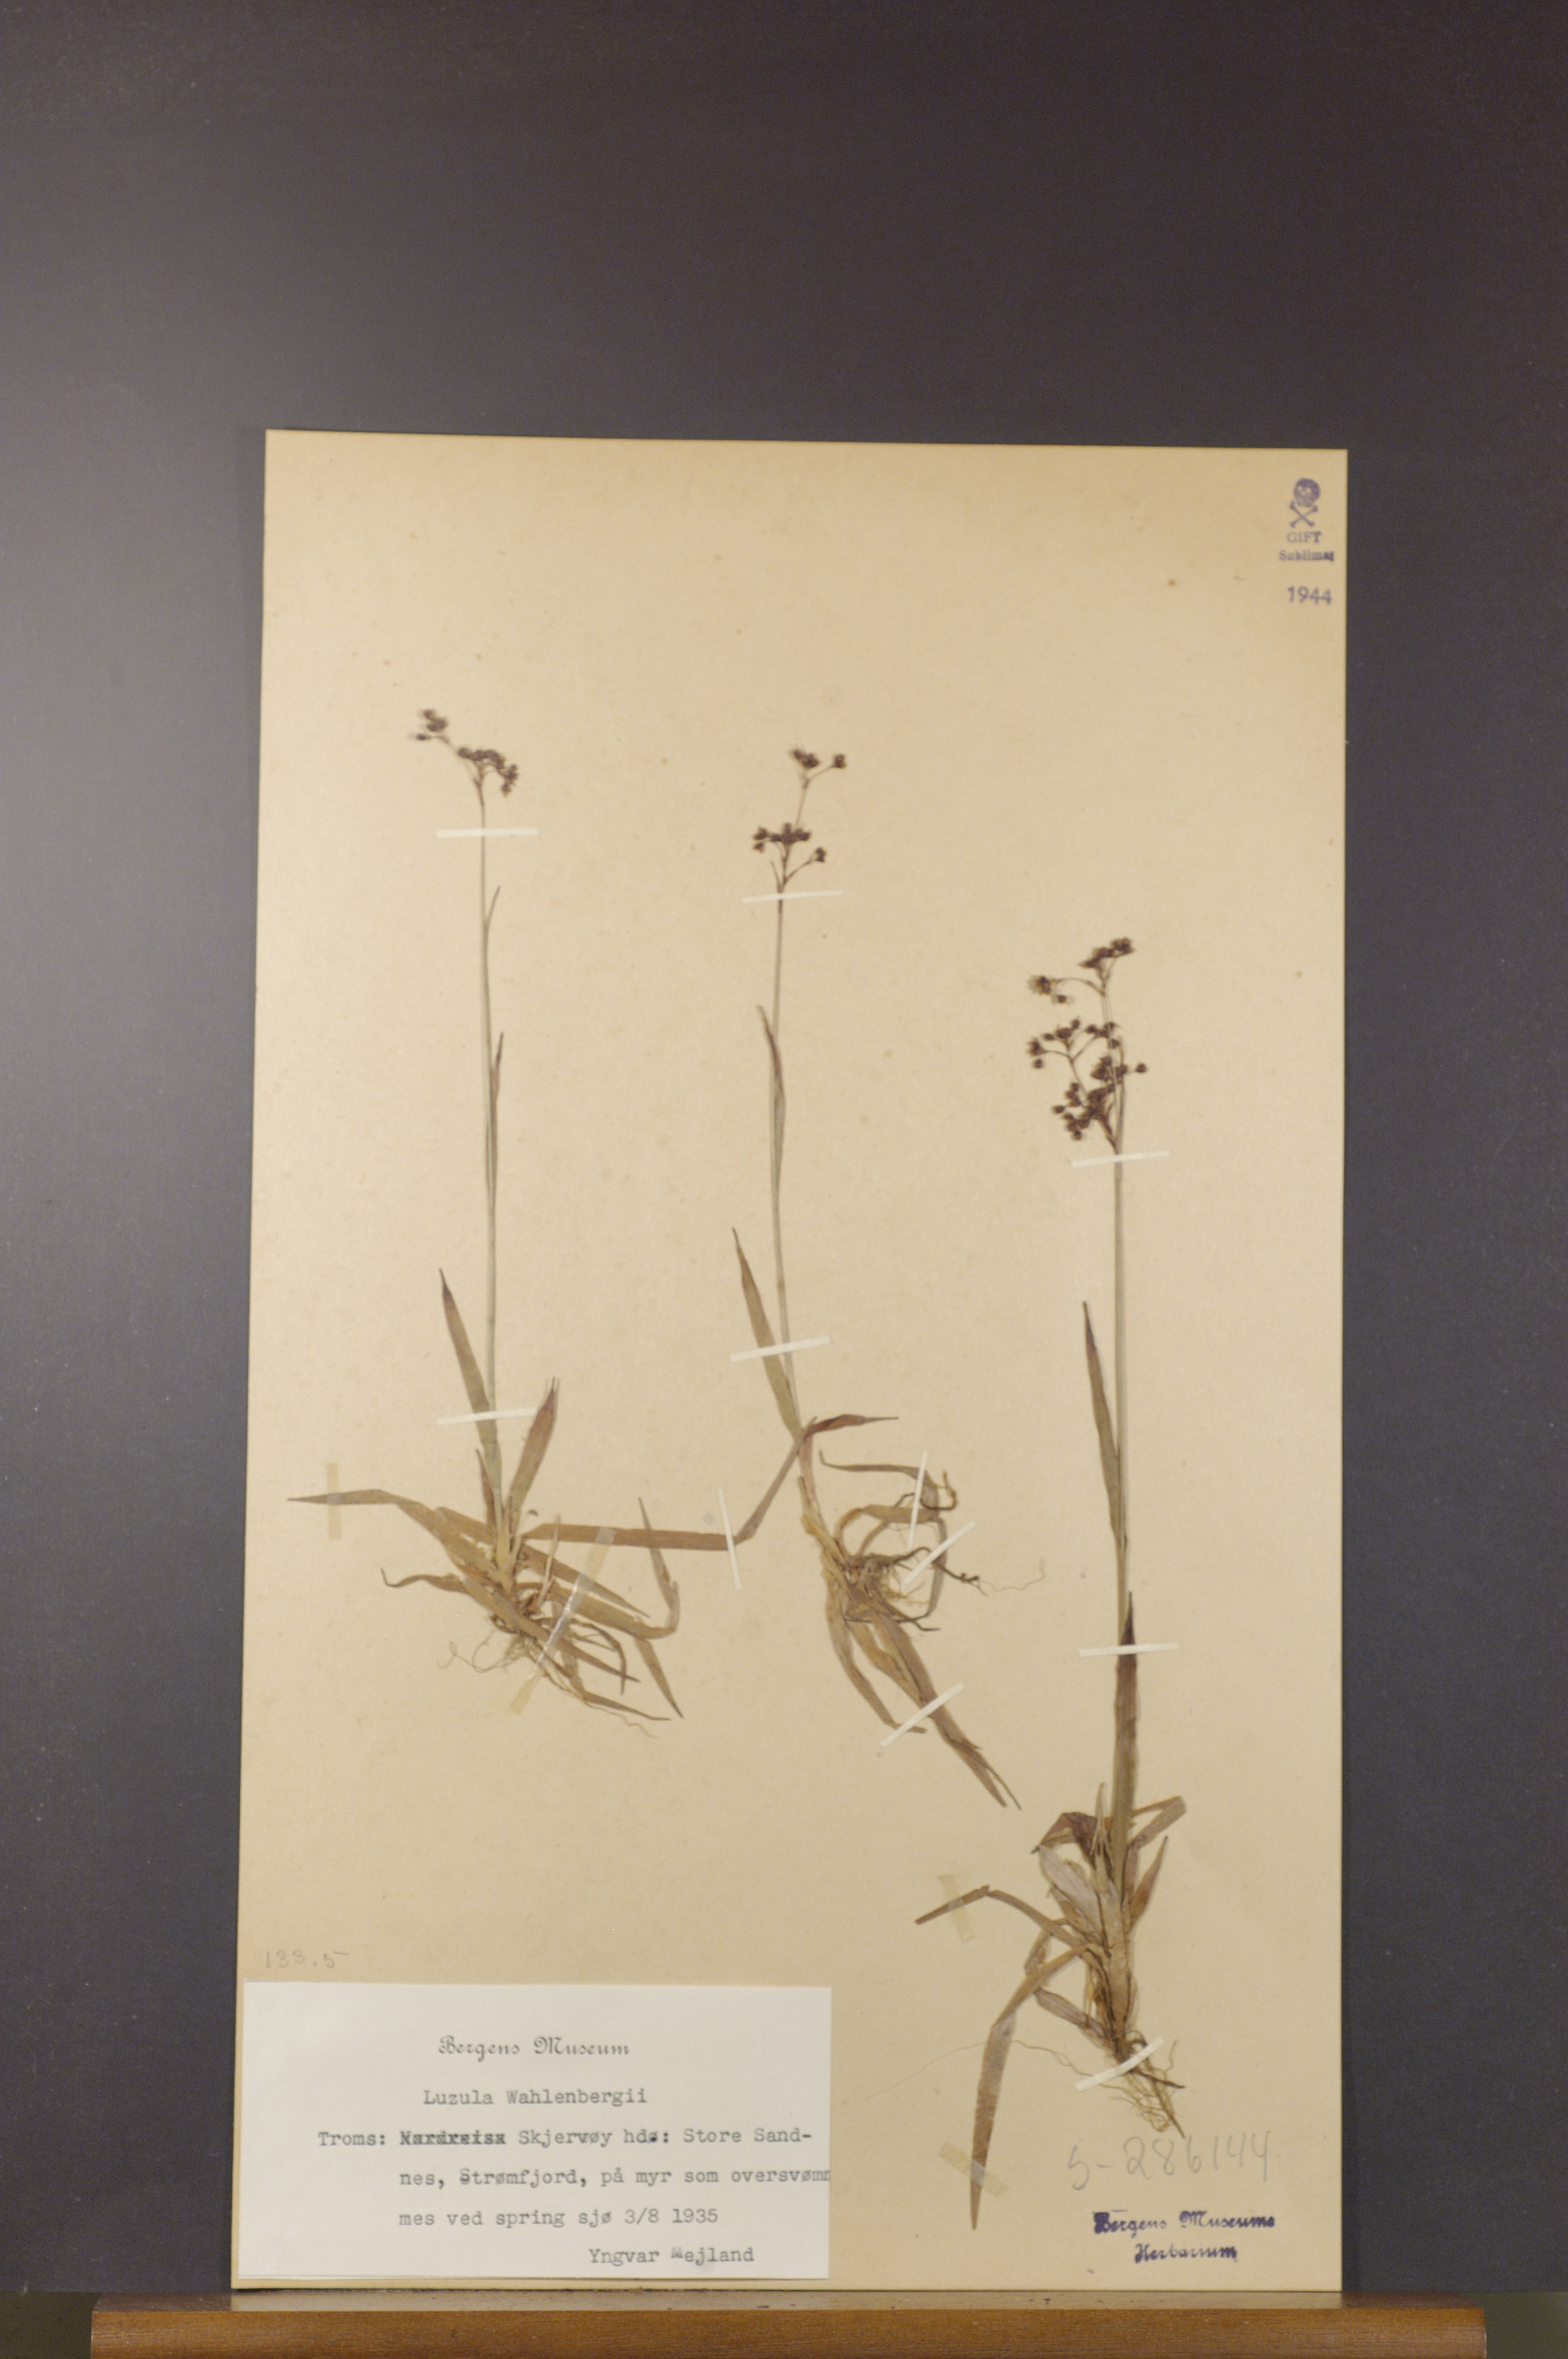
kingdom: Plantae
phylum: Tracheophyta
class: Liliopsida
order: Poales
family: Juncaceae
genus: Luzula
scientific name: Luzula wahlenbergii
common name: Wahlenberg's wood-rush
